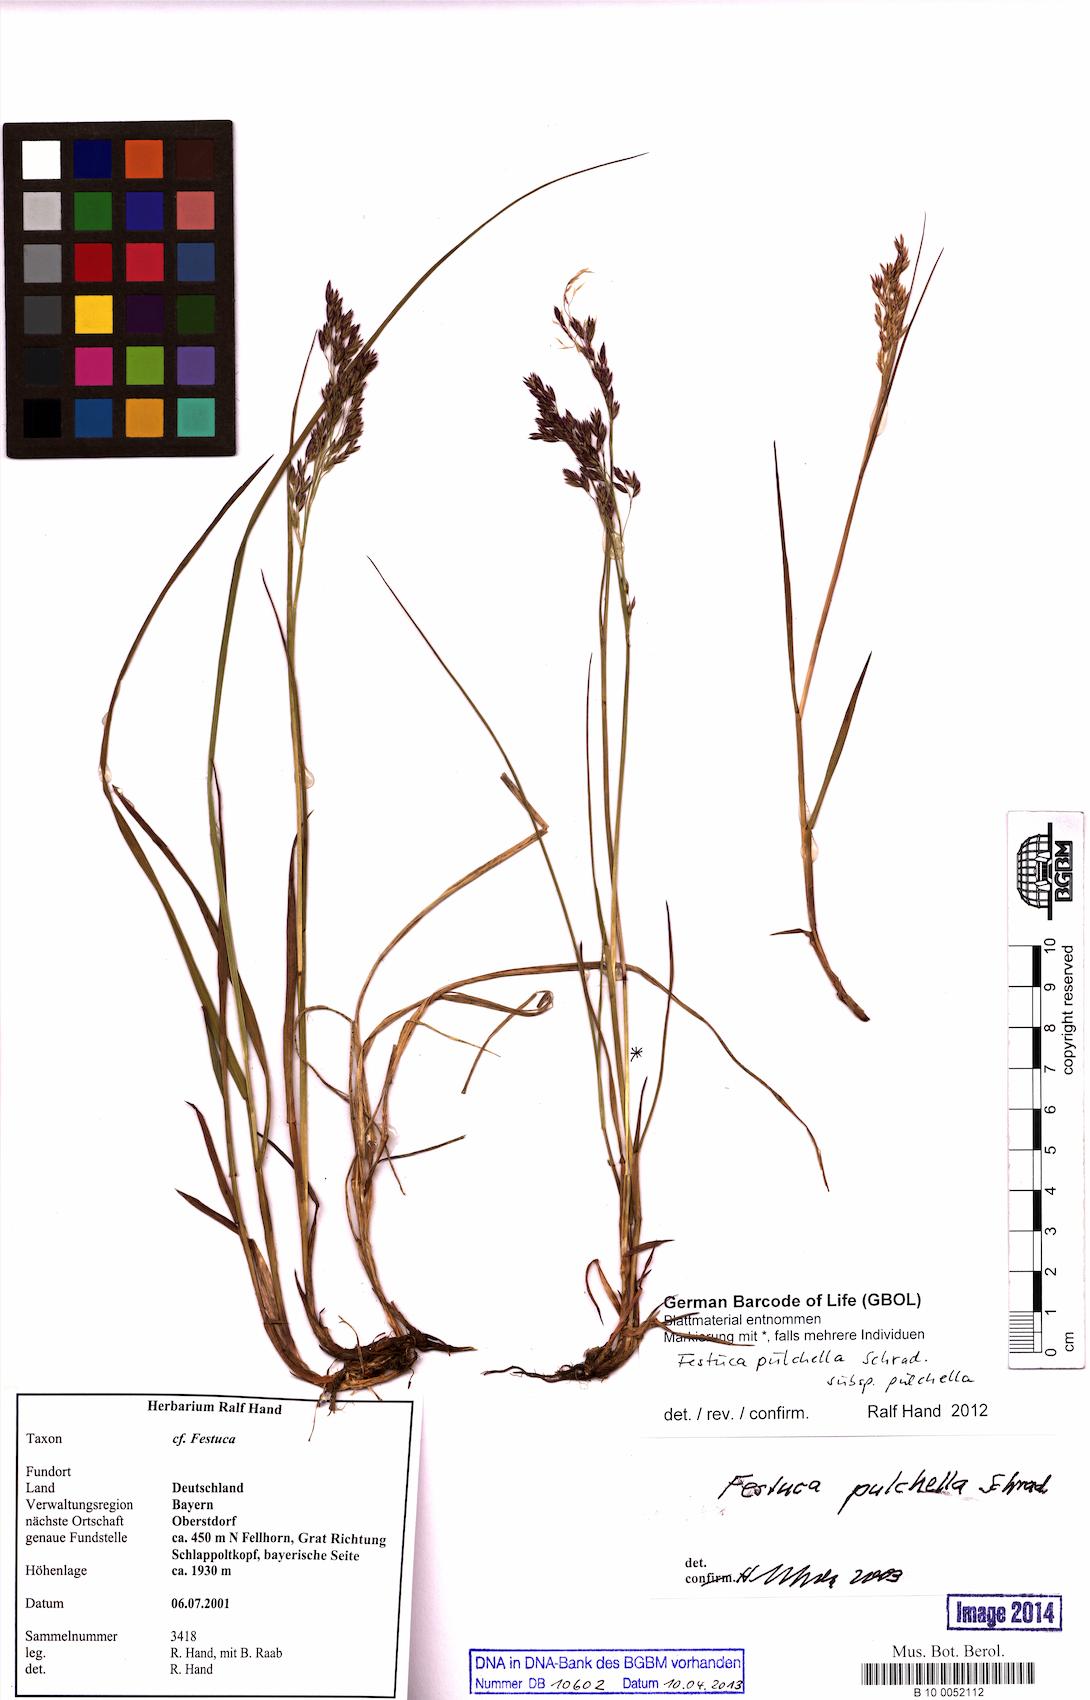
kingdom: Plantae
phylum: Tracheophyta
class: Liliopsida
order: Poales
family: Poaceae
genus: Festuca
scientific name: Festuca pulchella
